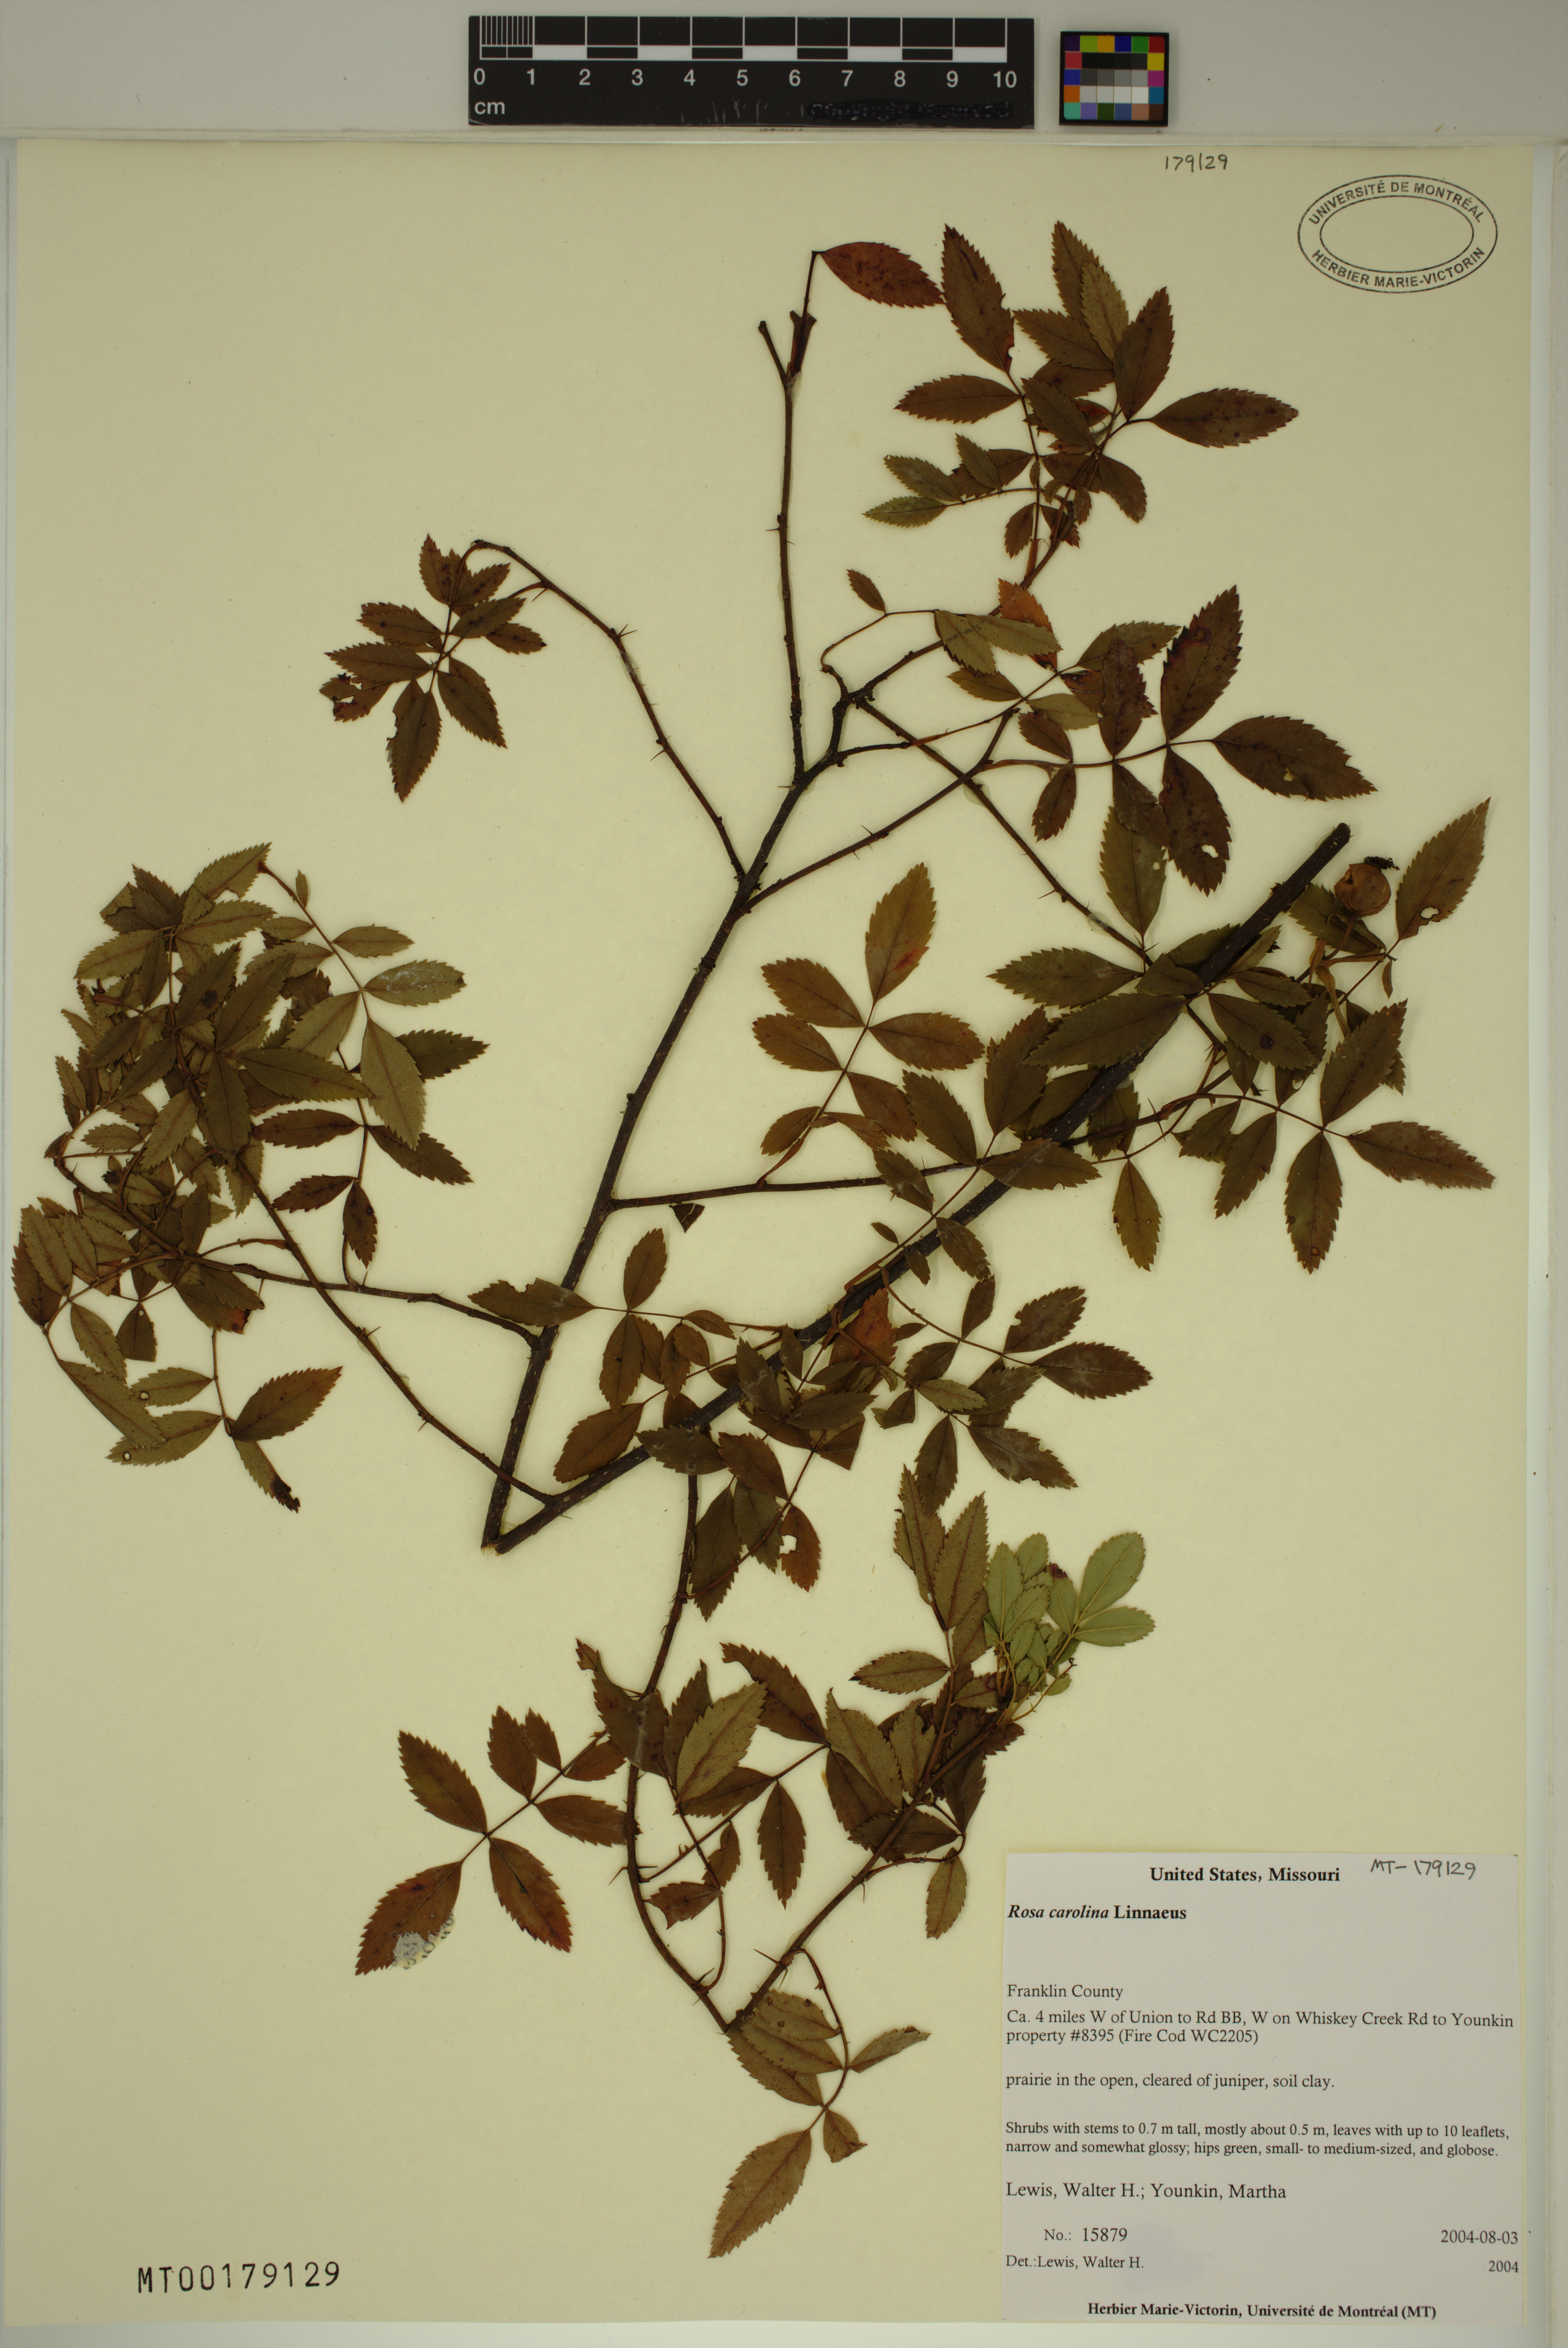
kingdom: Plantae
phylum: Tracheophyta
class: Magnoliopsida
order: Rosales
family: Rosaceae
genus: Rosa
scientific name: Rosa carolina
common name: Pasture rose
